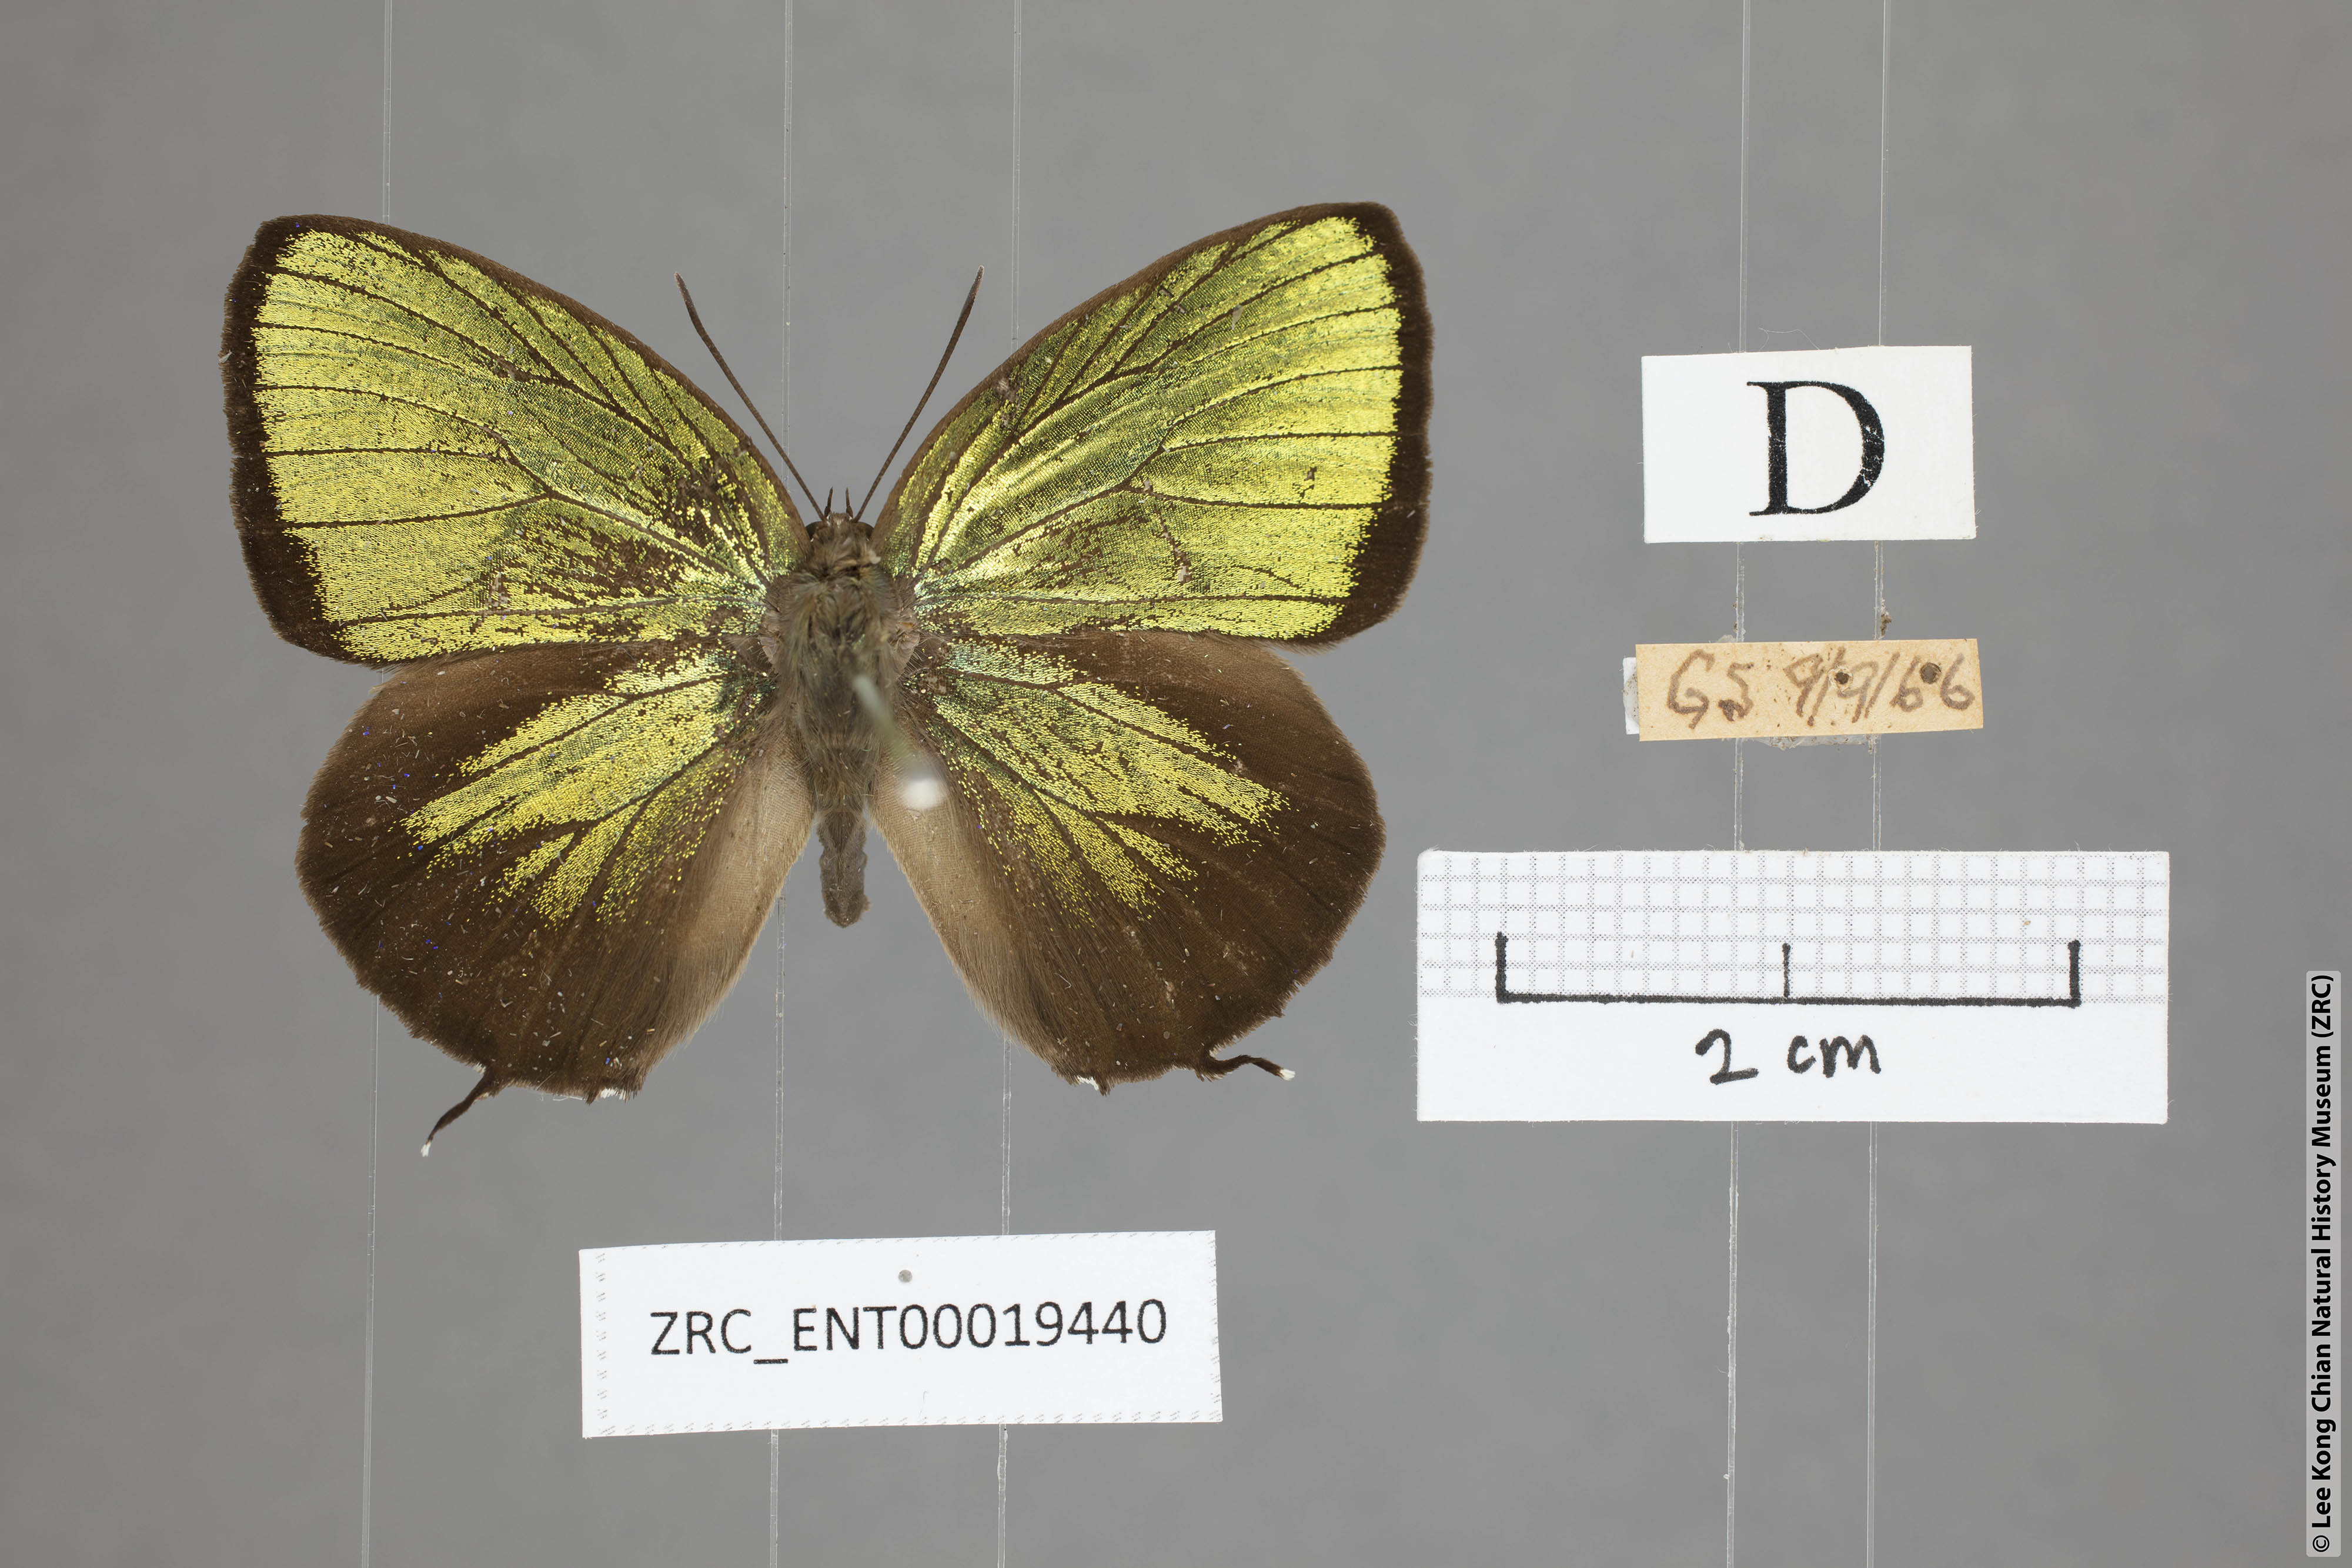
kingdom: Animalia
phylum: Arthropoda
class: Insecta
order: Lepidoptera
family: Lycaenidae
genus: Arhopala
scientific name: Arhopala eumolphus
